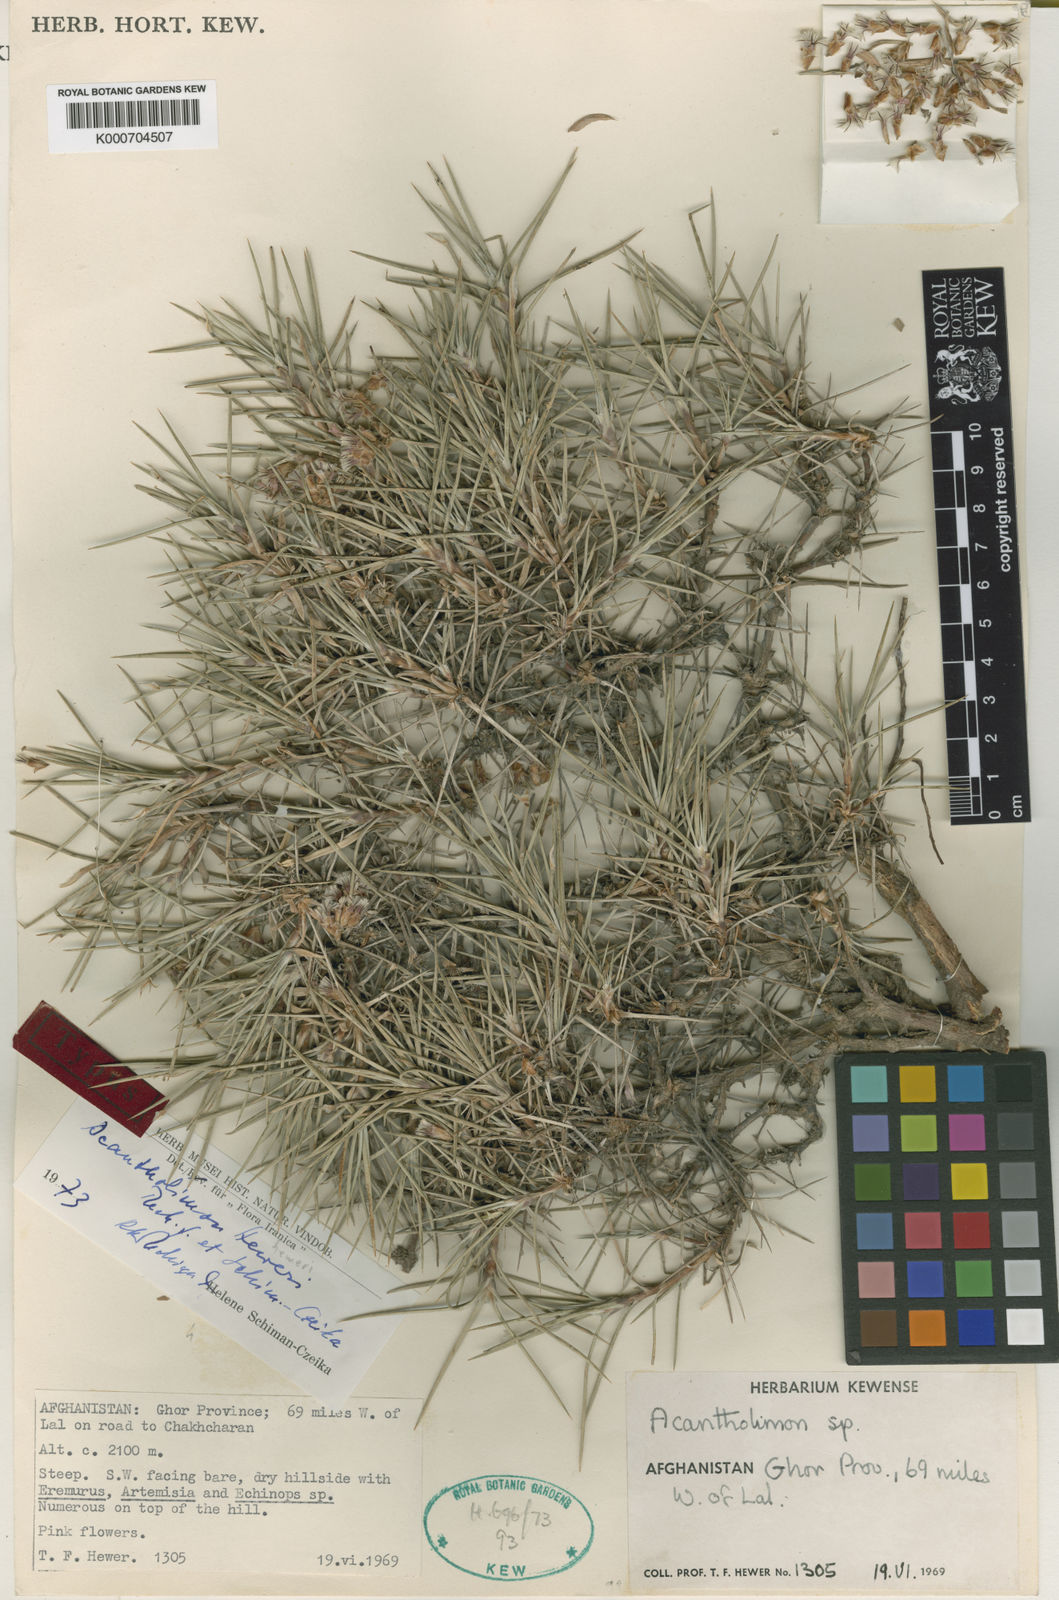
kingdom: Plantae
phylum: Tracheophyta
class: Magnoliopsida
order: Caryophyllales
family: Plumbaginaceae
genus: Acantholimon
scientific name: Acantholimon heweri
